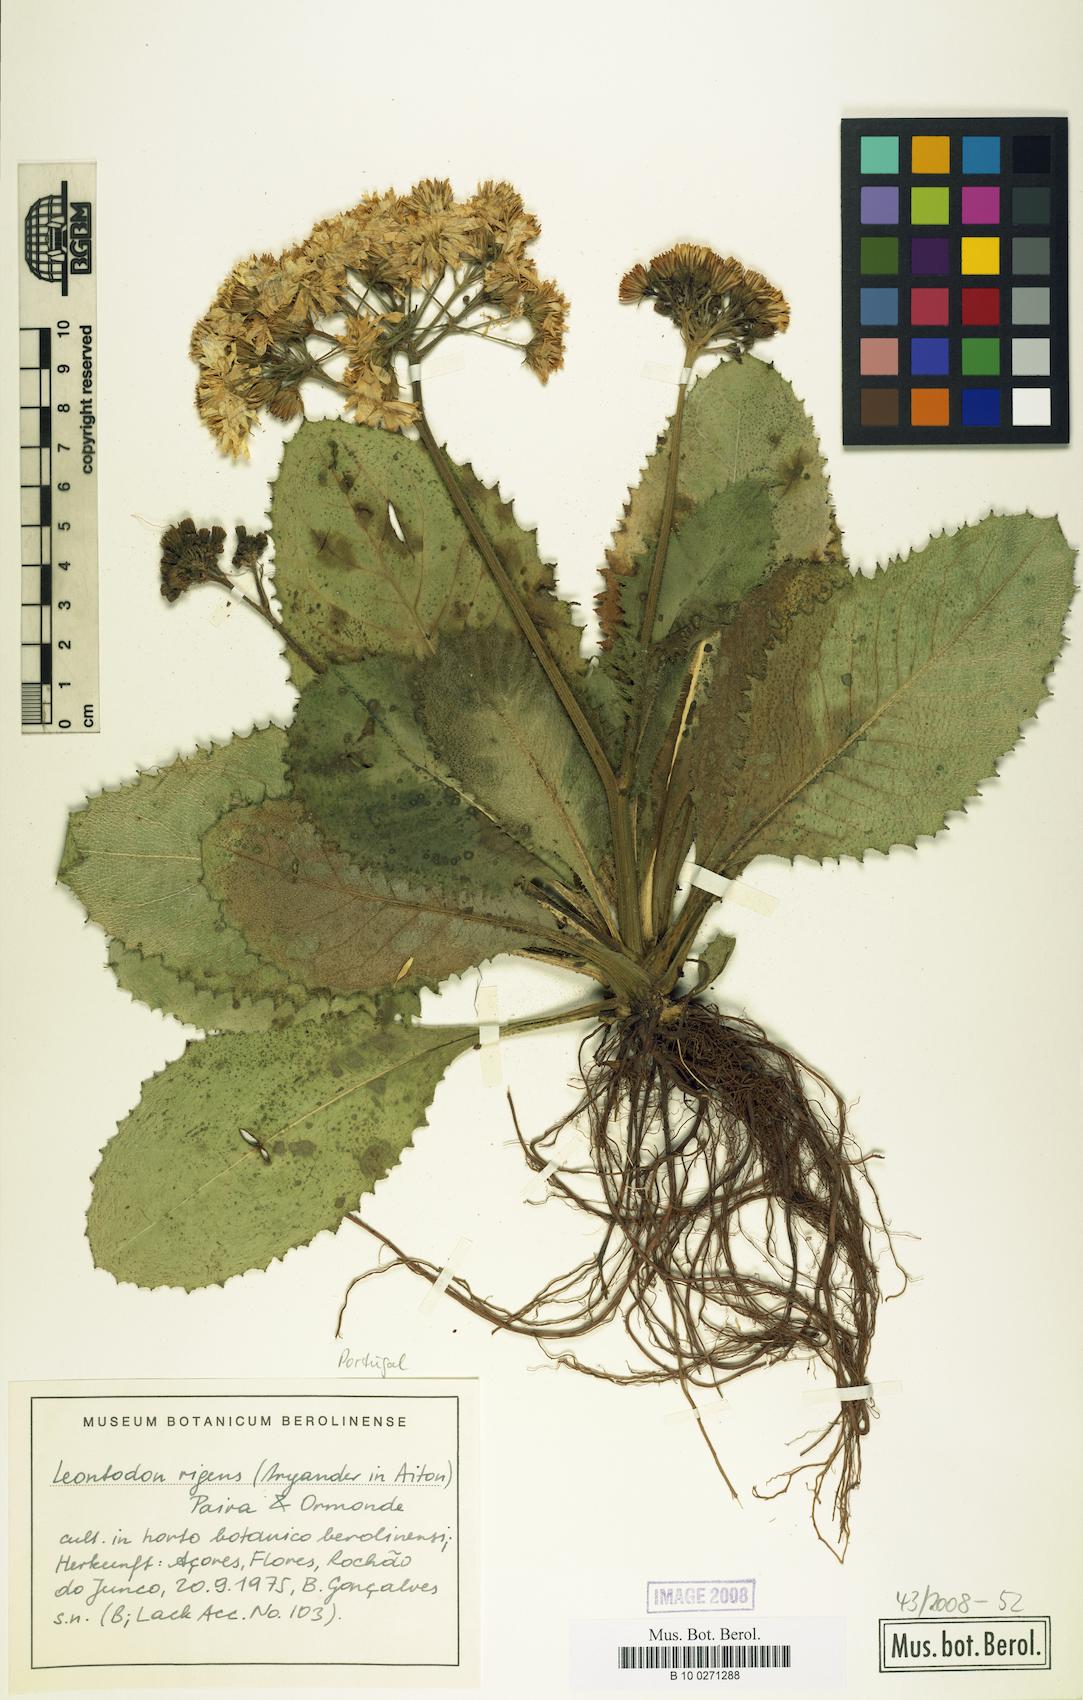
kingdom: Plantae
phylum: Tracheophyta
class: Magnoliopsida
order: Asterales
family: Asteraceae
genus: Leontodon
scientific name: Leontodon rigens
